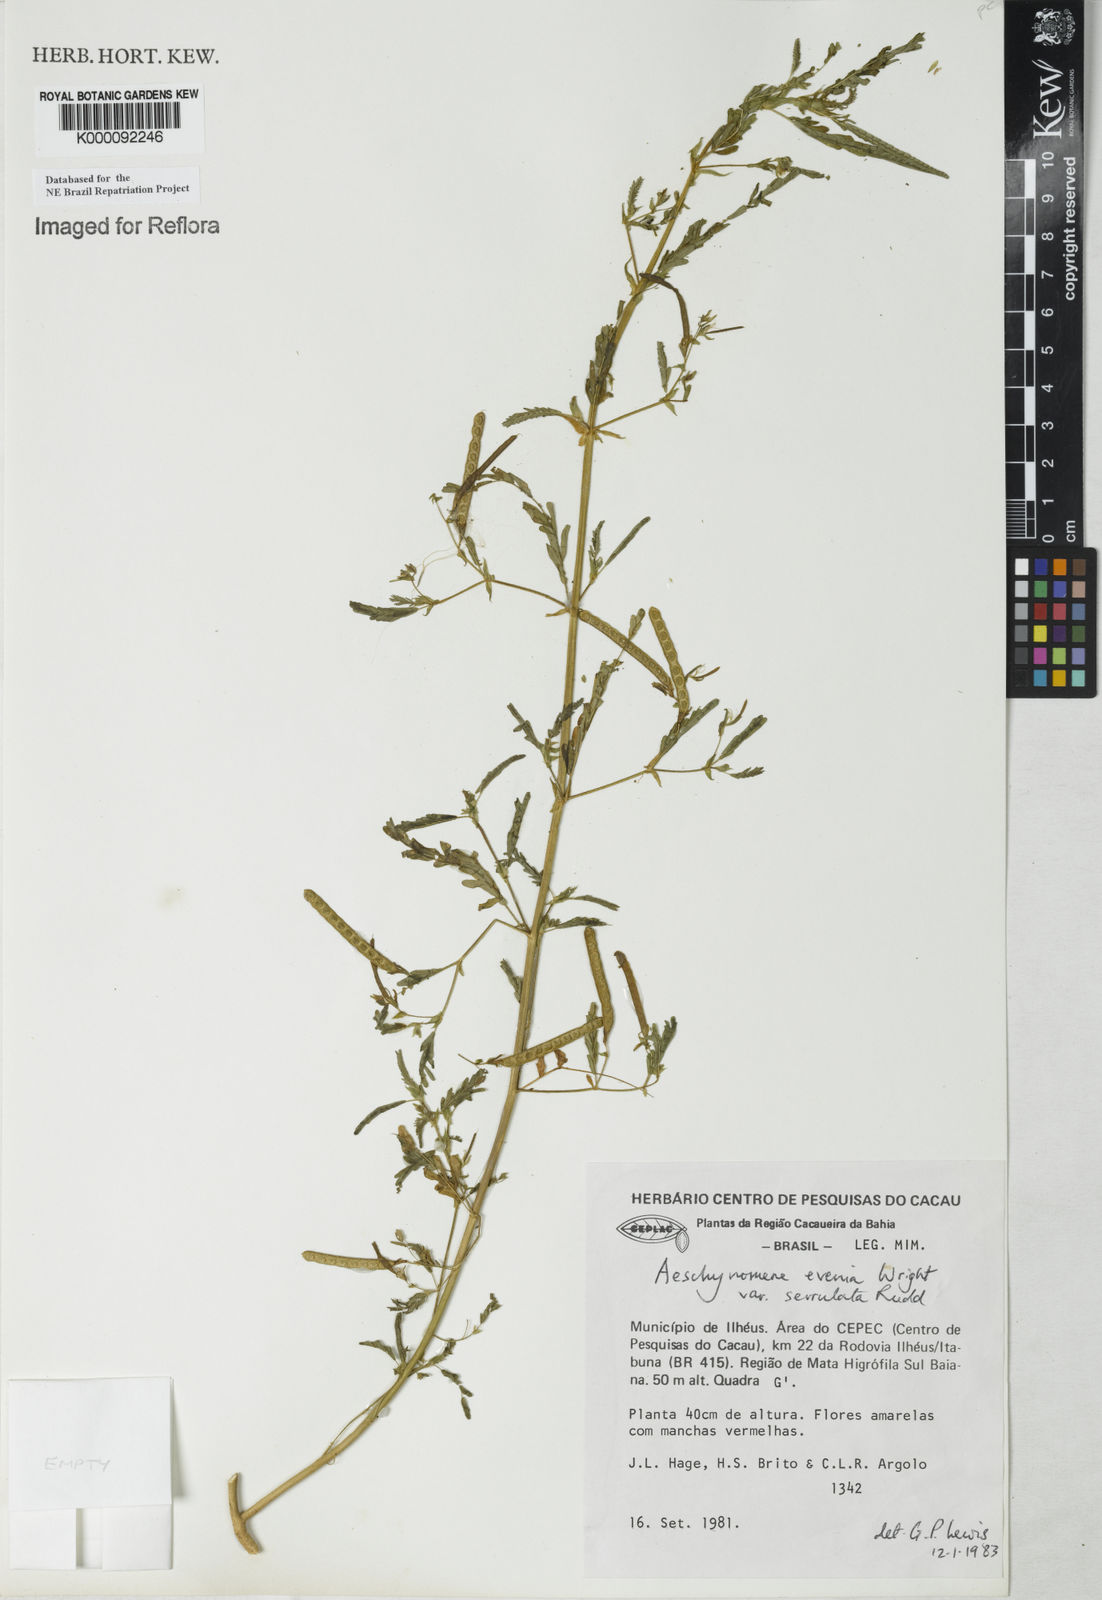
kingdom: Plantae
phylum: Tracheophyta
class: Magnoliopsida
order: Fabales
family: Fabaceae
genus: Aeschynomene
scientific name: Aeschynomene evenia
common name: Shrubby jointvetch
